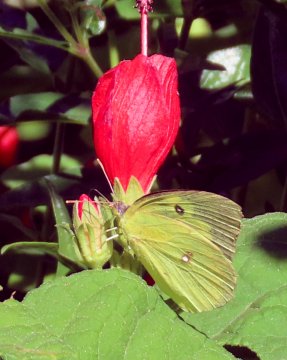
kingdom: Animalia
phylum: Arthropoda
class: Insecta
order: Lepidoptera
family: Pieridae
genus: Zerene
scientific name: Zerene cesonia
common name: Southern Dogface
